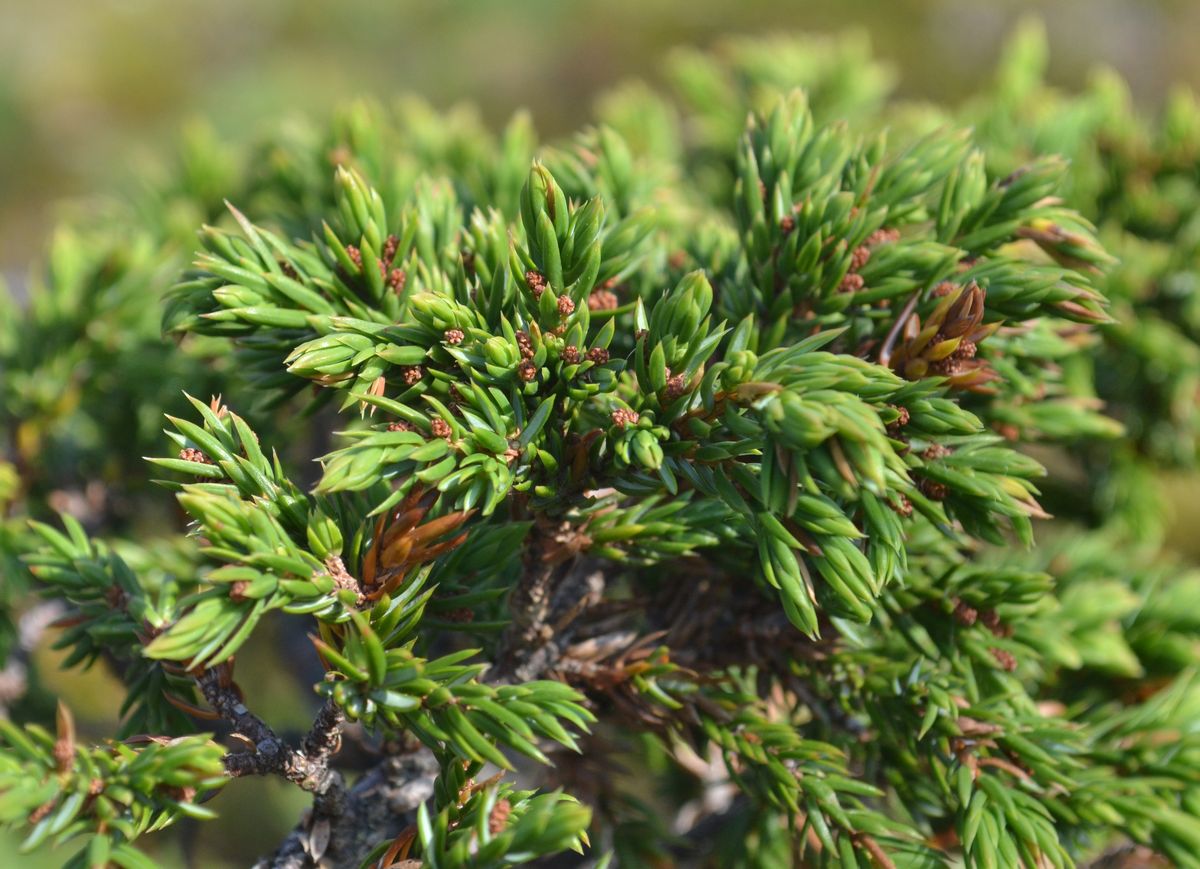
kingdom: Plantae
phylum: Tracheophyta
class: Pinopsida
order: Pinales
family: Cupressaceae
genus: Juniperus
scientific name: Juniperus communis
